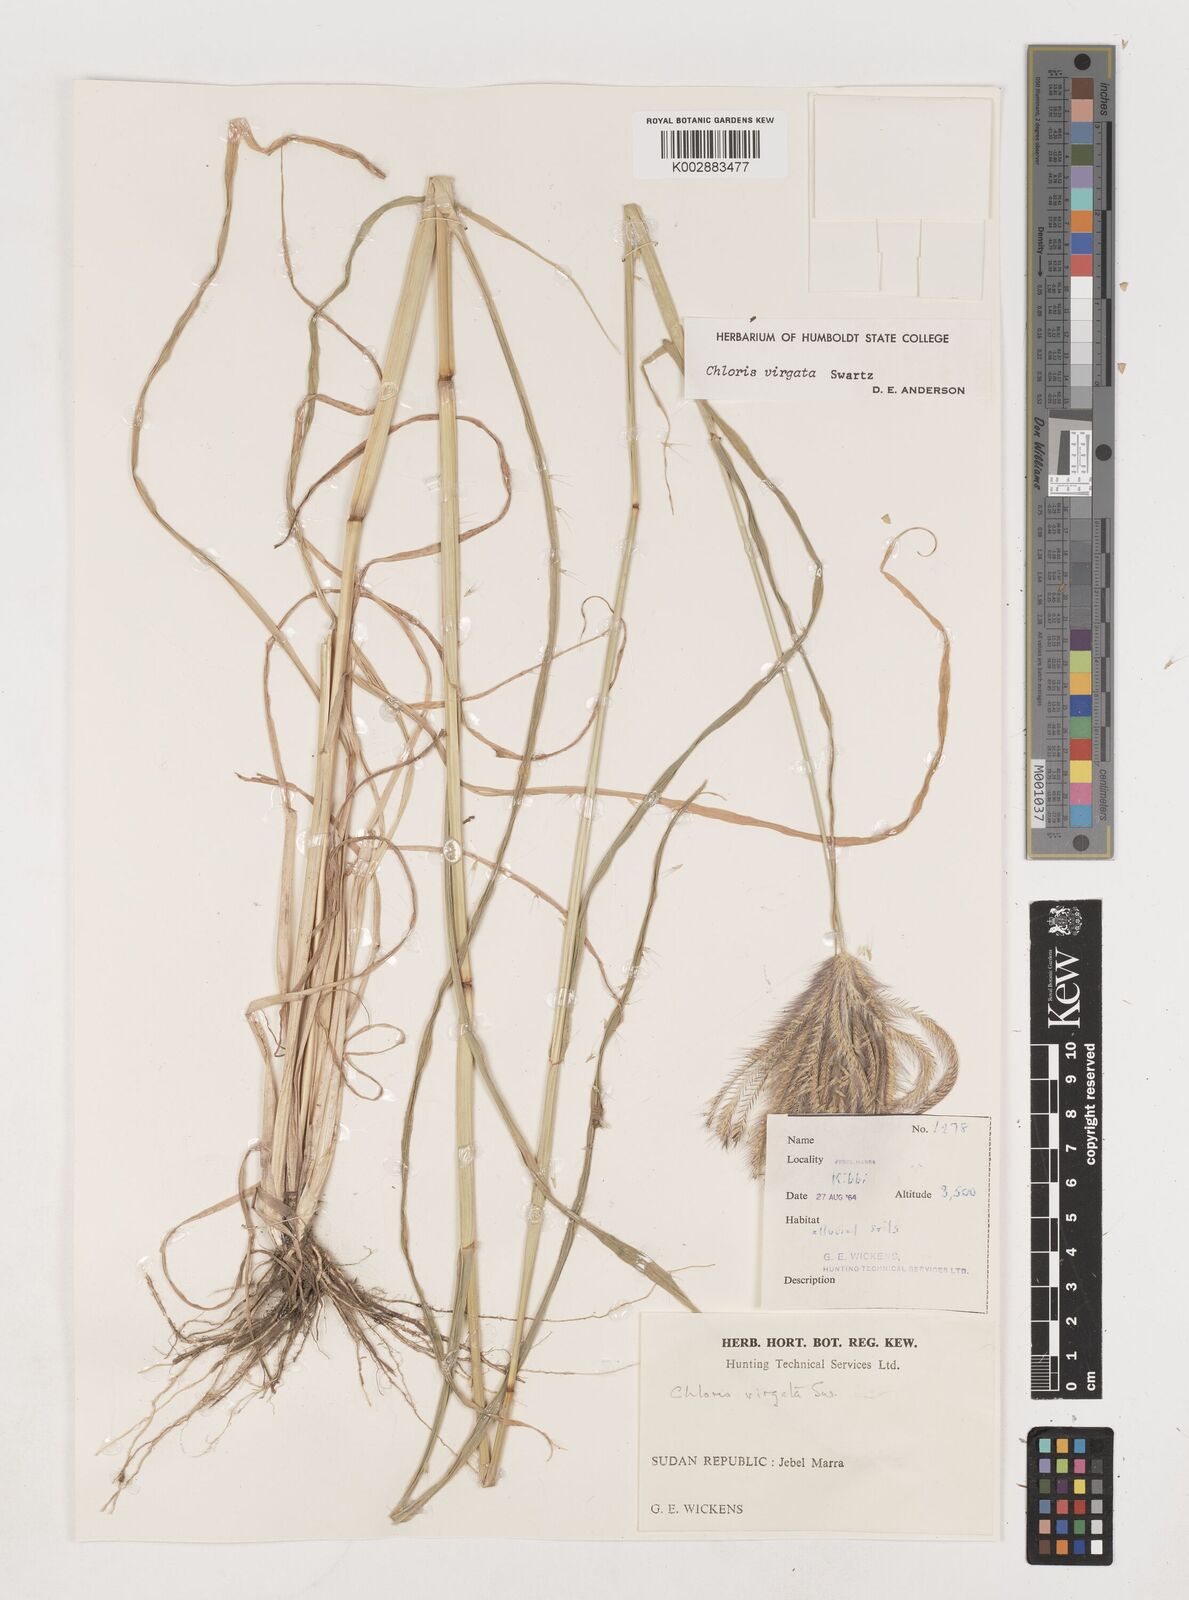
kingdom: Plantae
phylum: Tracheophyta
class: Liliopsida
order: Poales
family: Poaceae
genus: Chloris
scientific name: Chloris virgata
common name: Feathery rhodes-grass
